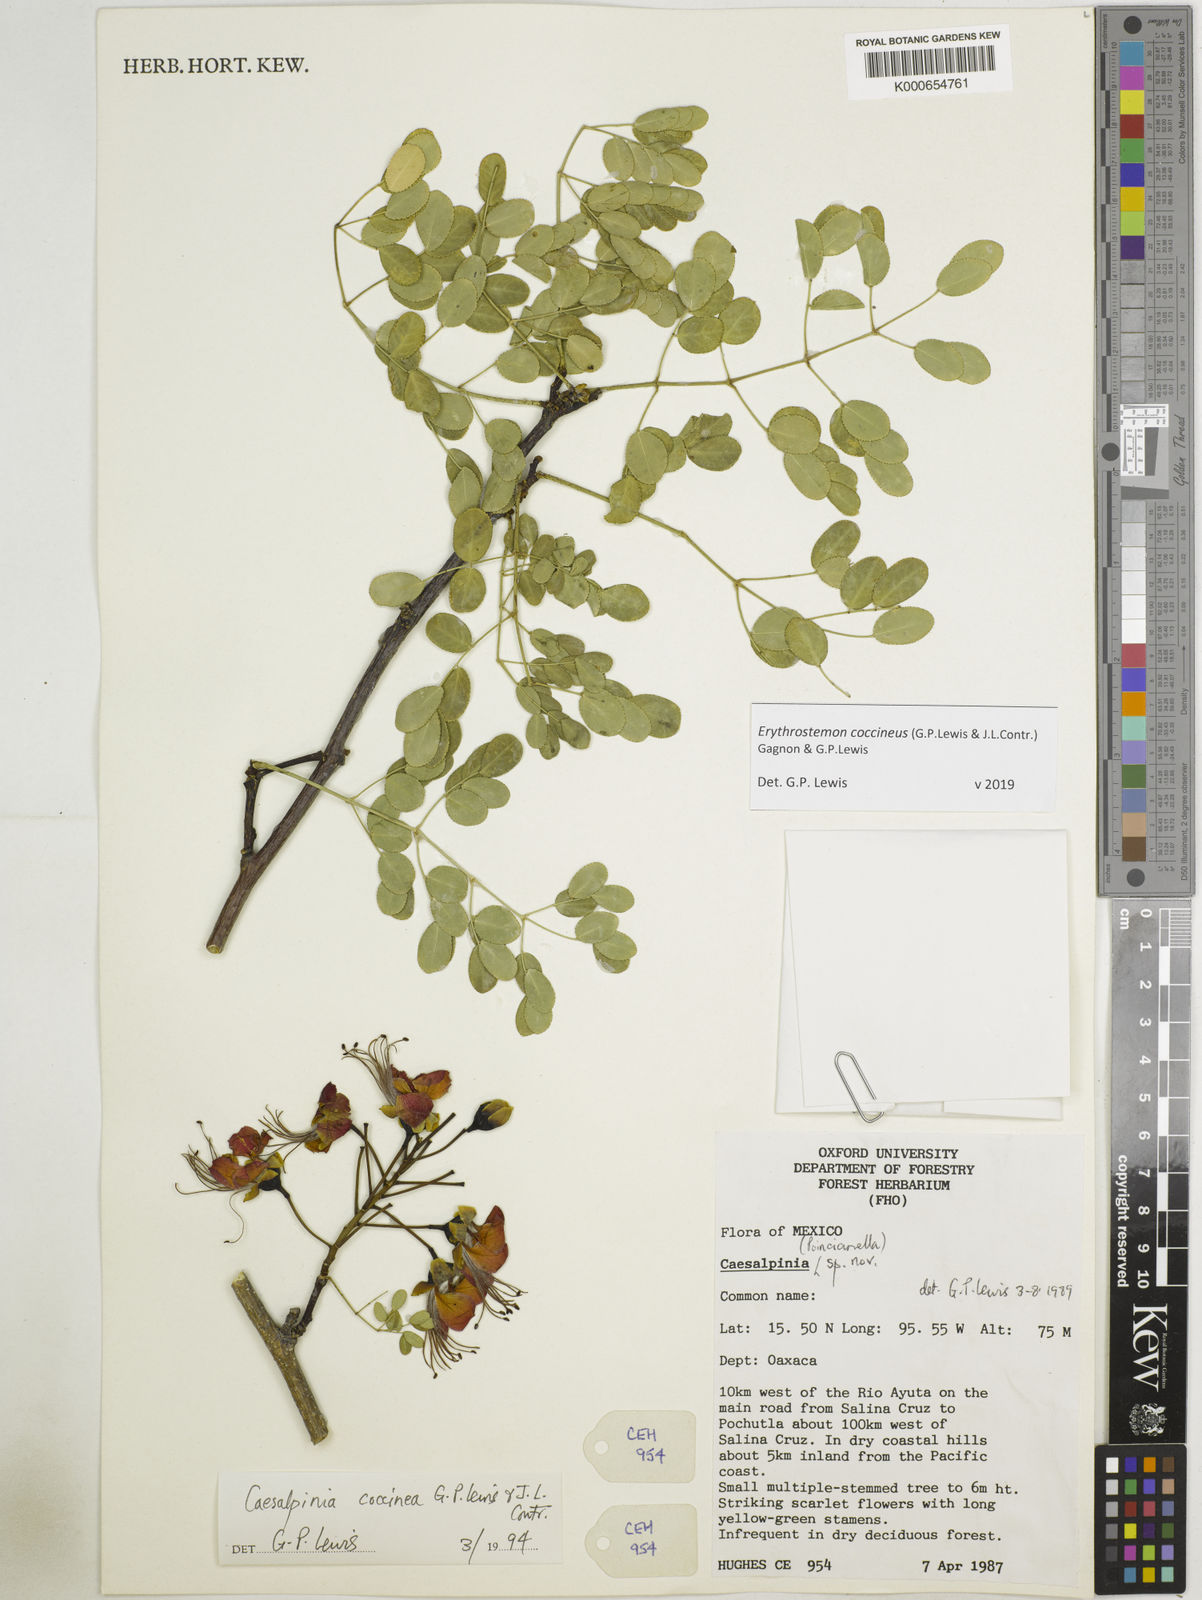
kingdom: Plantae
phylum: Tracheophyta
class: Magnoliopsida
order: Fabales
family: Fabaceae
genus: Erythrostemon
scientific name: Erythrostemon coccineus
